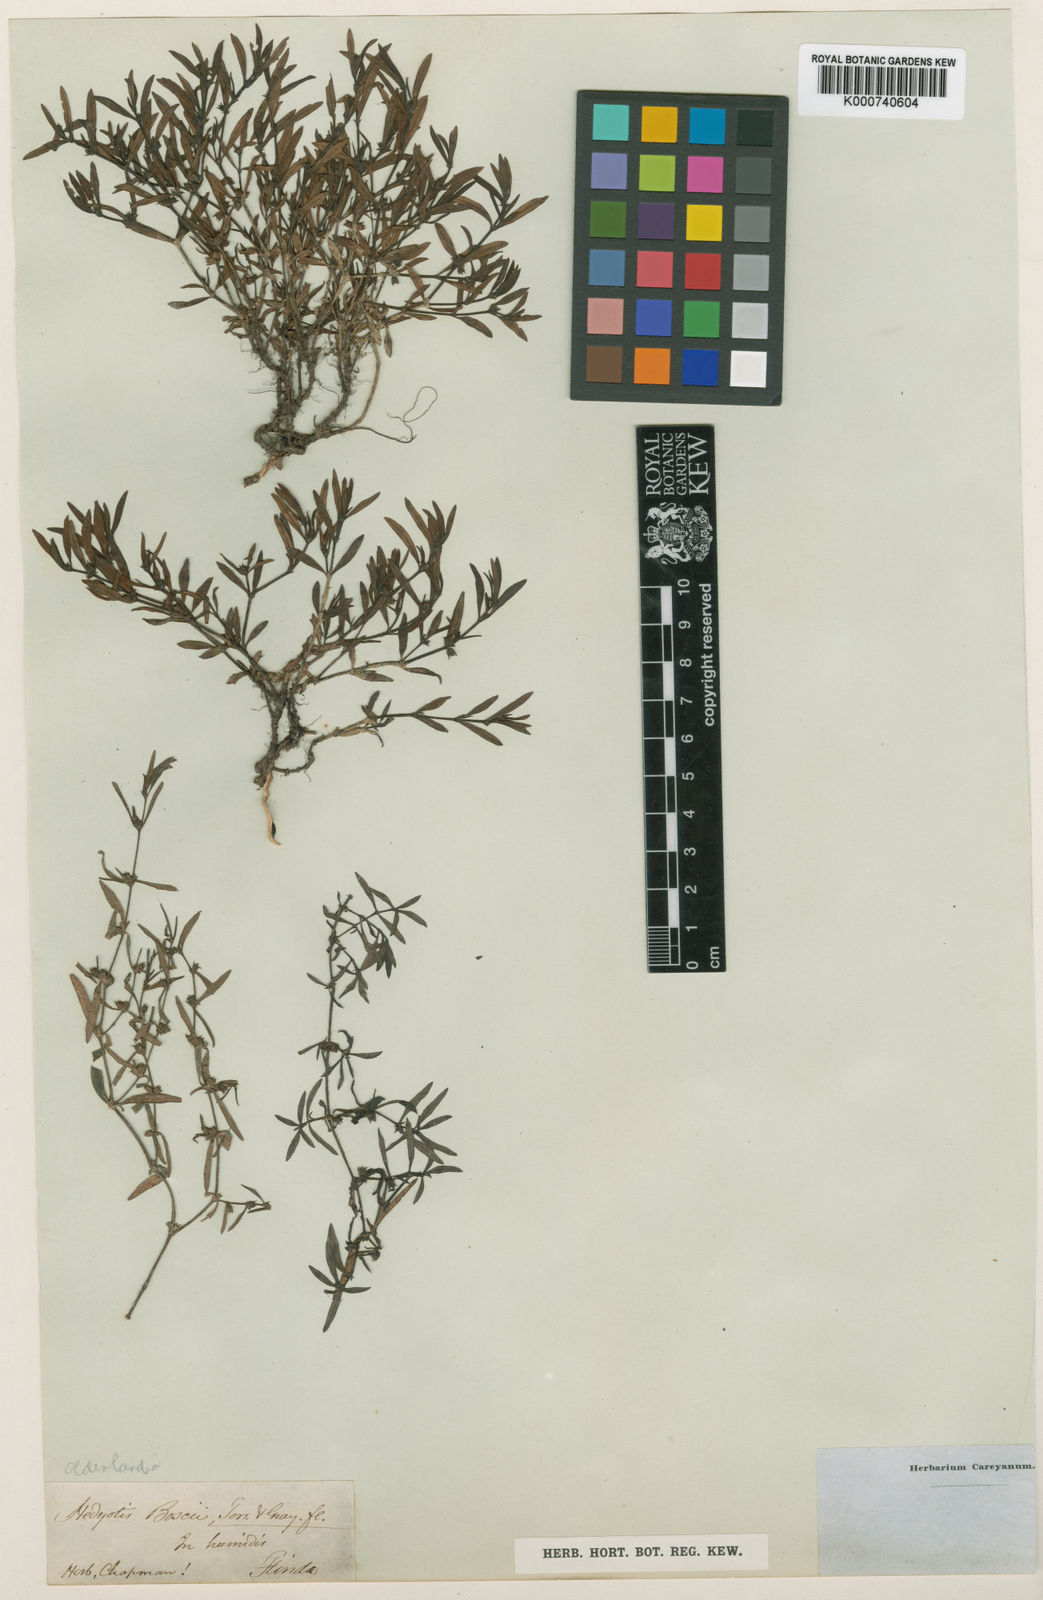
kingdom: Plantae
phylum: Tracheophyta
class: Magnoliopsida
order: Gentianales
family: Rubiaceae
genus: Oldenlandia
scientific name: Oldenlandia boscii
